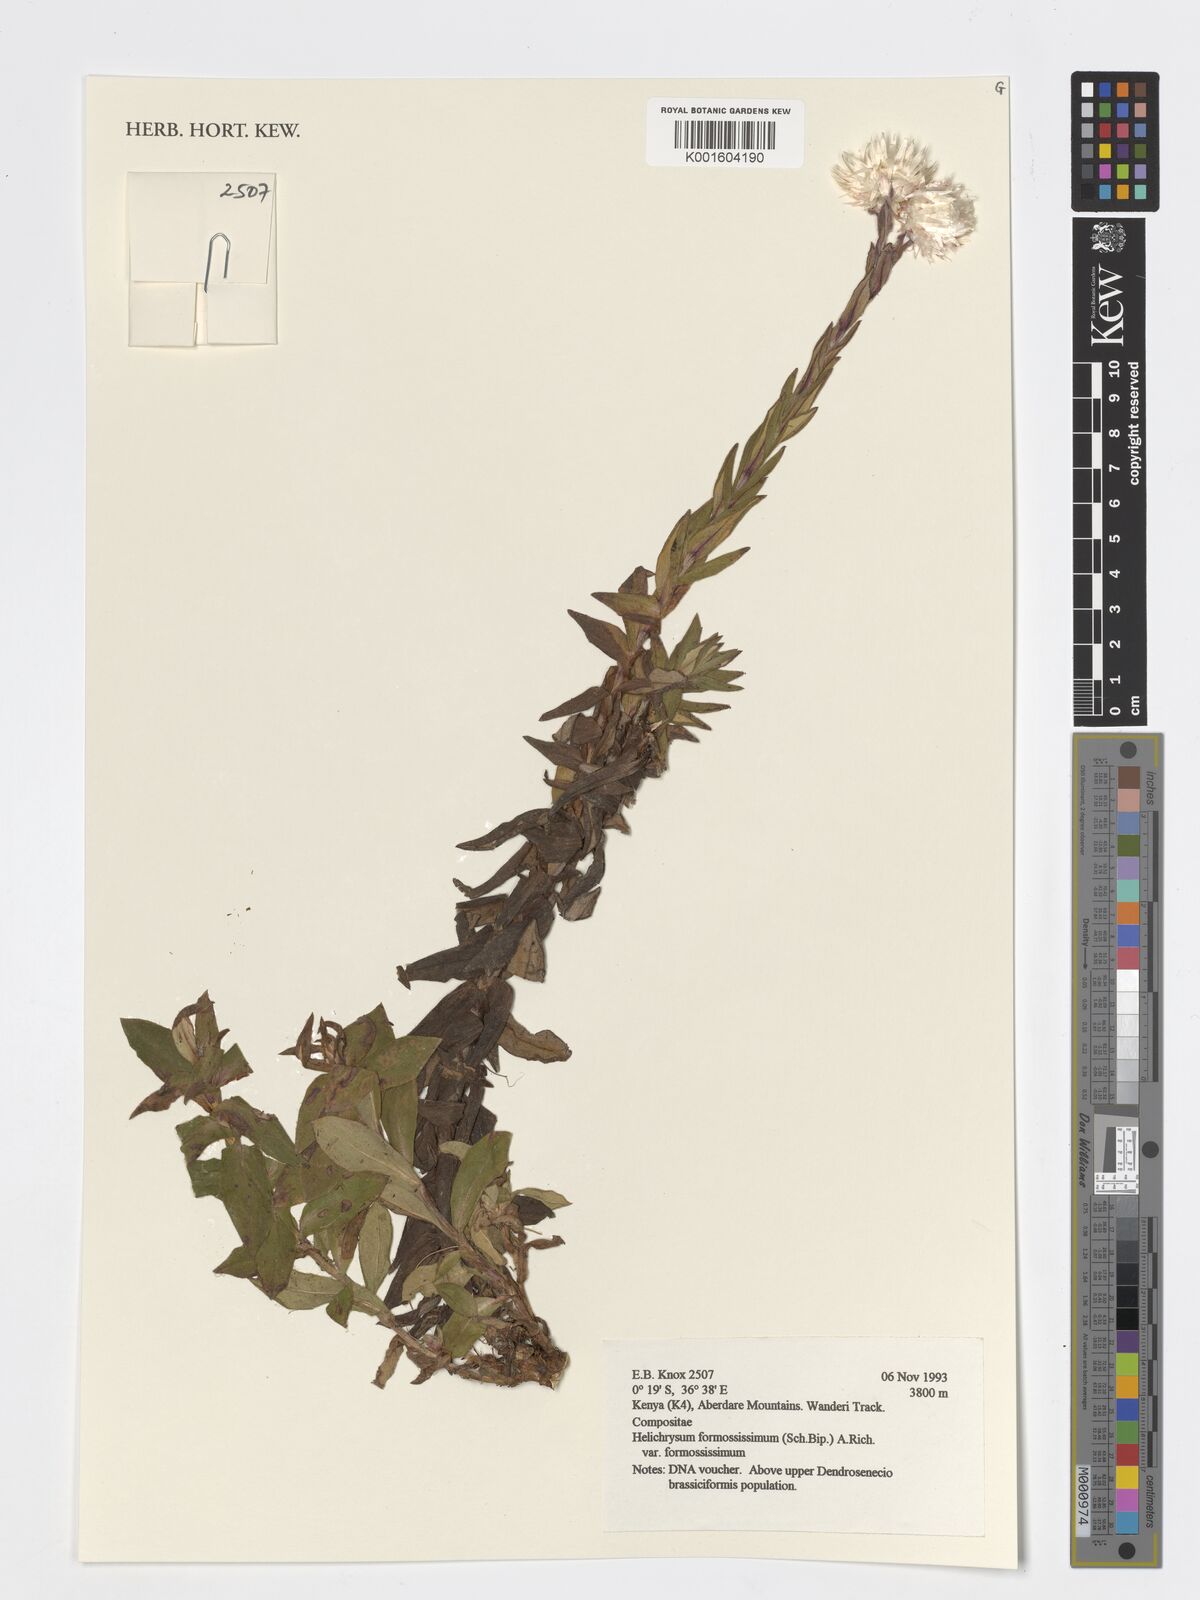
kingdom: Plantae
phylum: Tracheophyta
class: Magnoliopsida
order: Asterales
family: Asteraceae
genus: Helichrysum
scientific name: Helichrysum formosissimum
